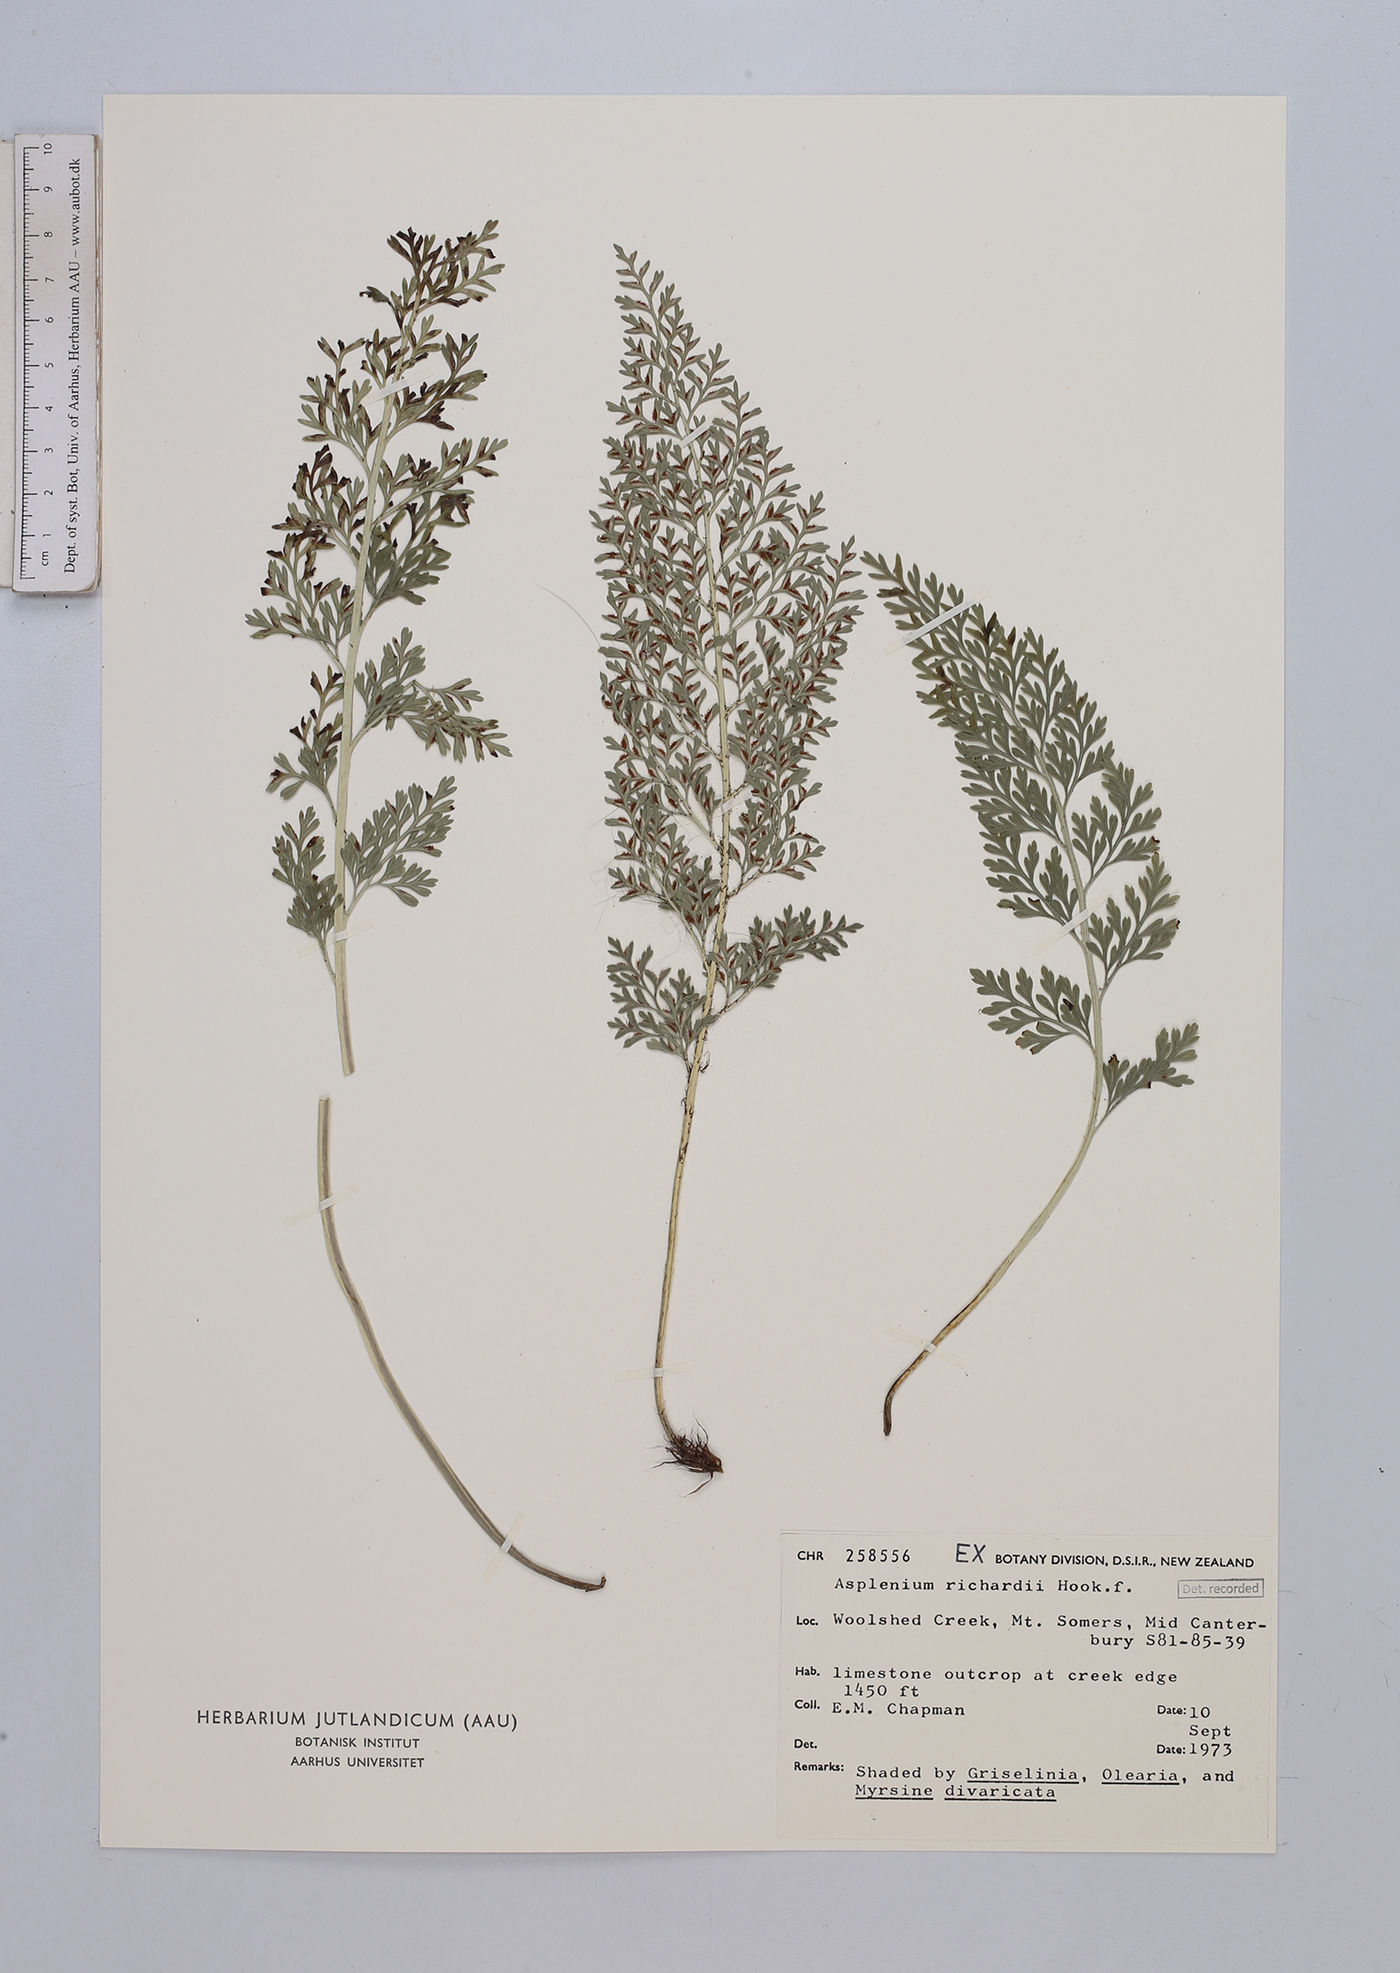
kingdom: Plantae
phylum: Tracheophyta
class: Polypodiopsida
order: Polypodiales
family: Aspleniaceae
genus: Asplenium
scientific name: Asplenium richardii
